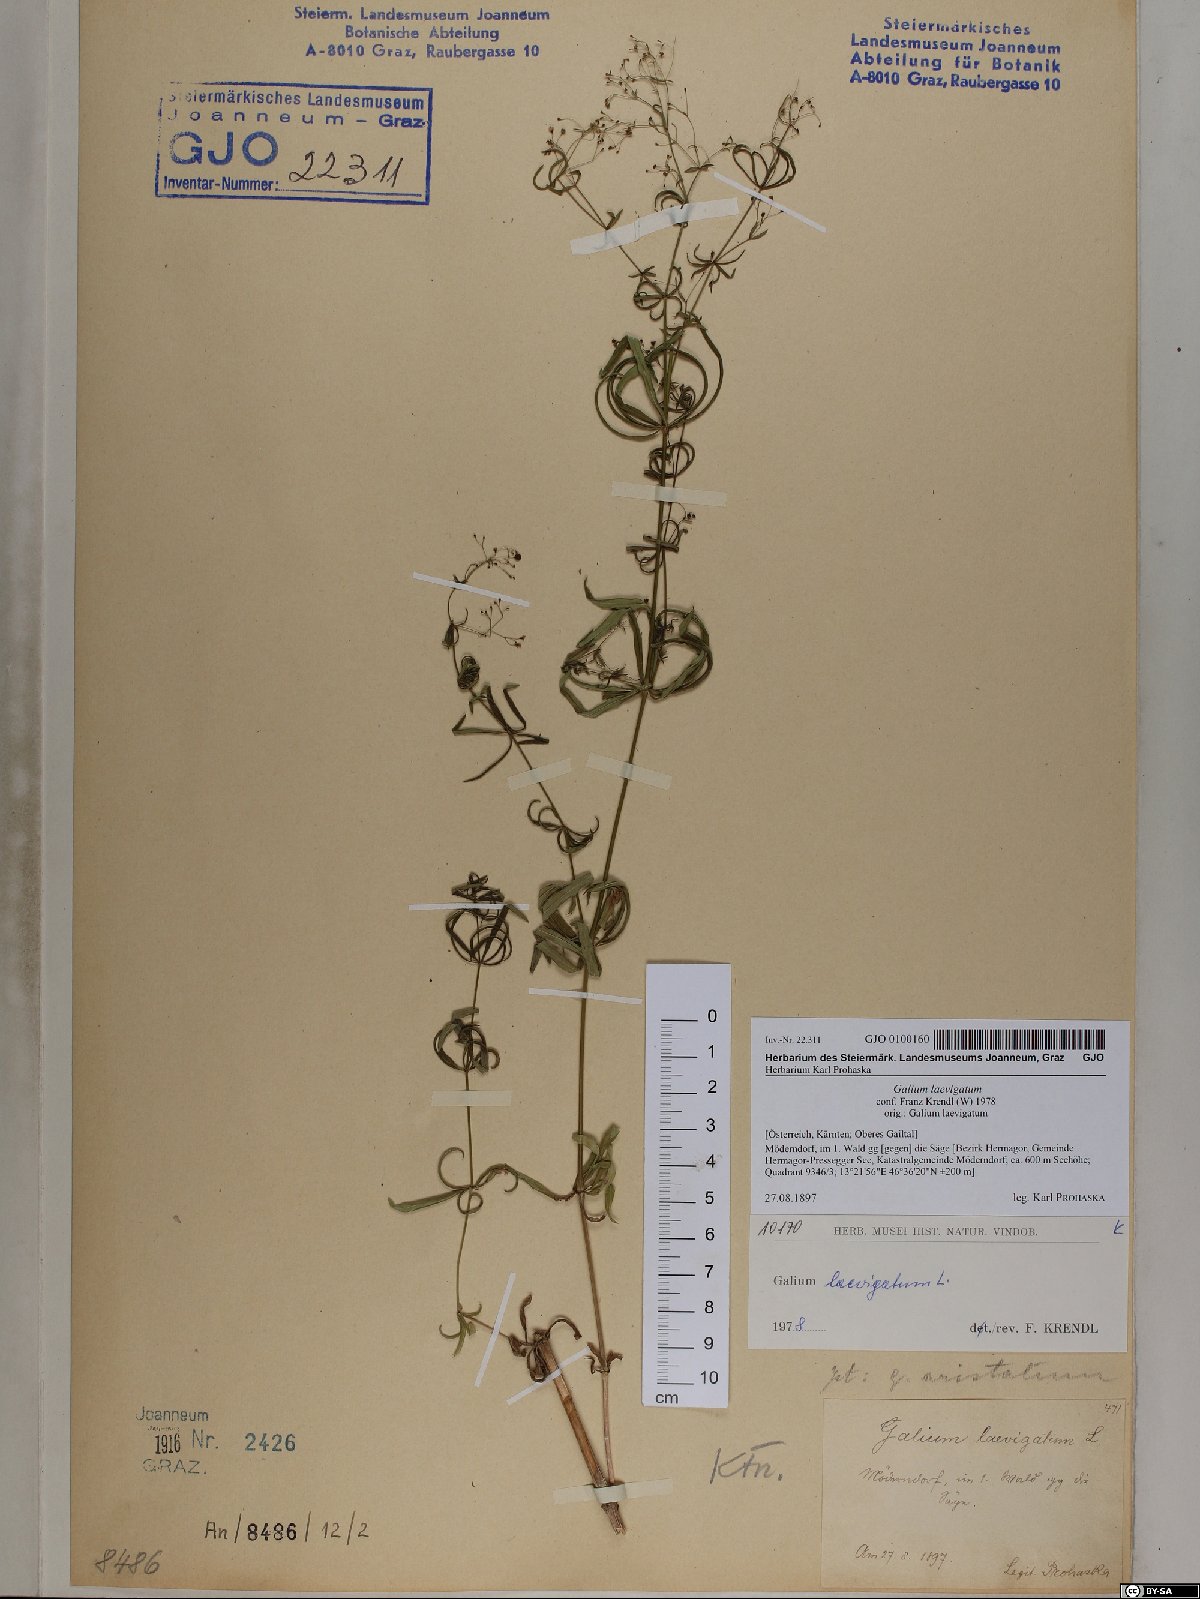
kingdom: Plantae
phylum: Tracheophyta
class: Magnoliopsida
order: Gentianales
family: Rubiaceae
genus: Galium
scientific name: Galium laevigatum
